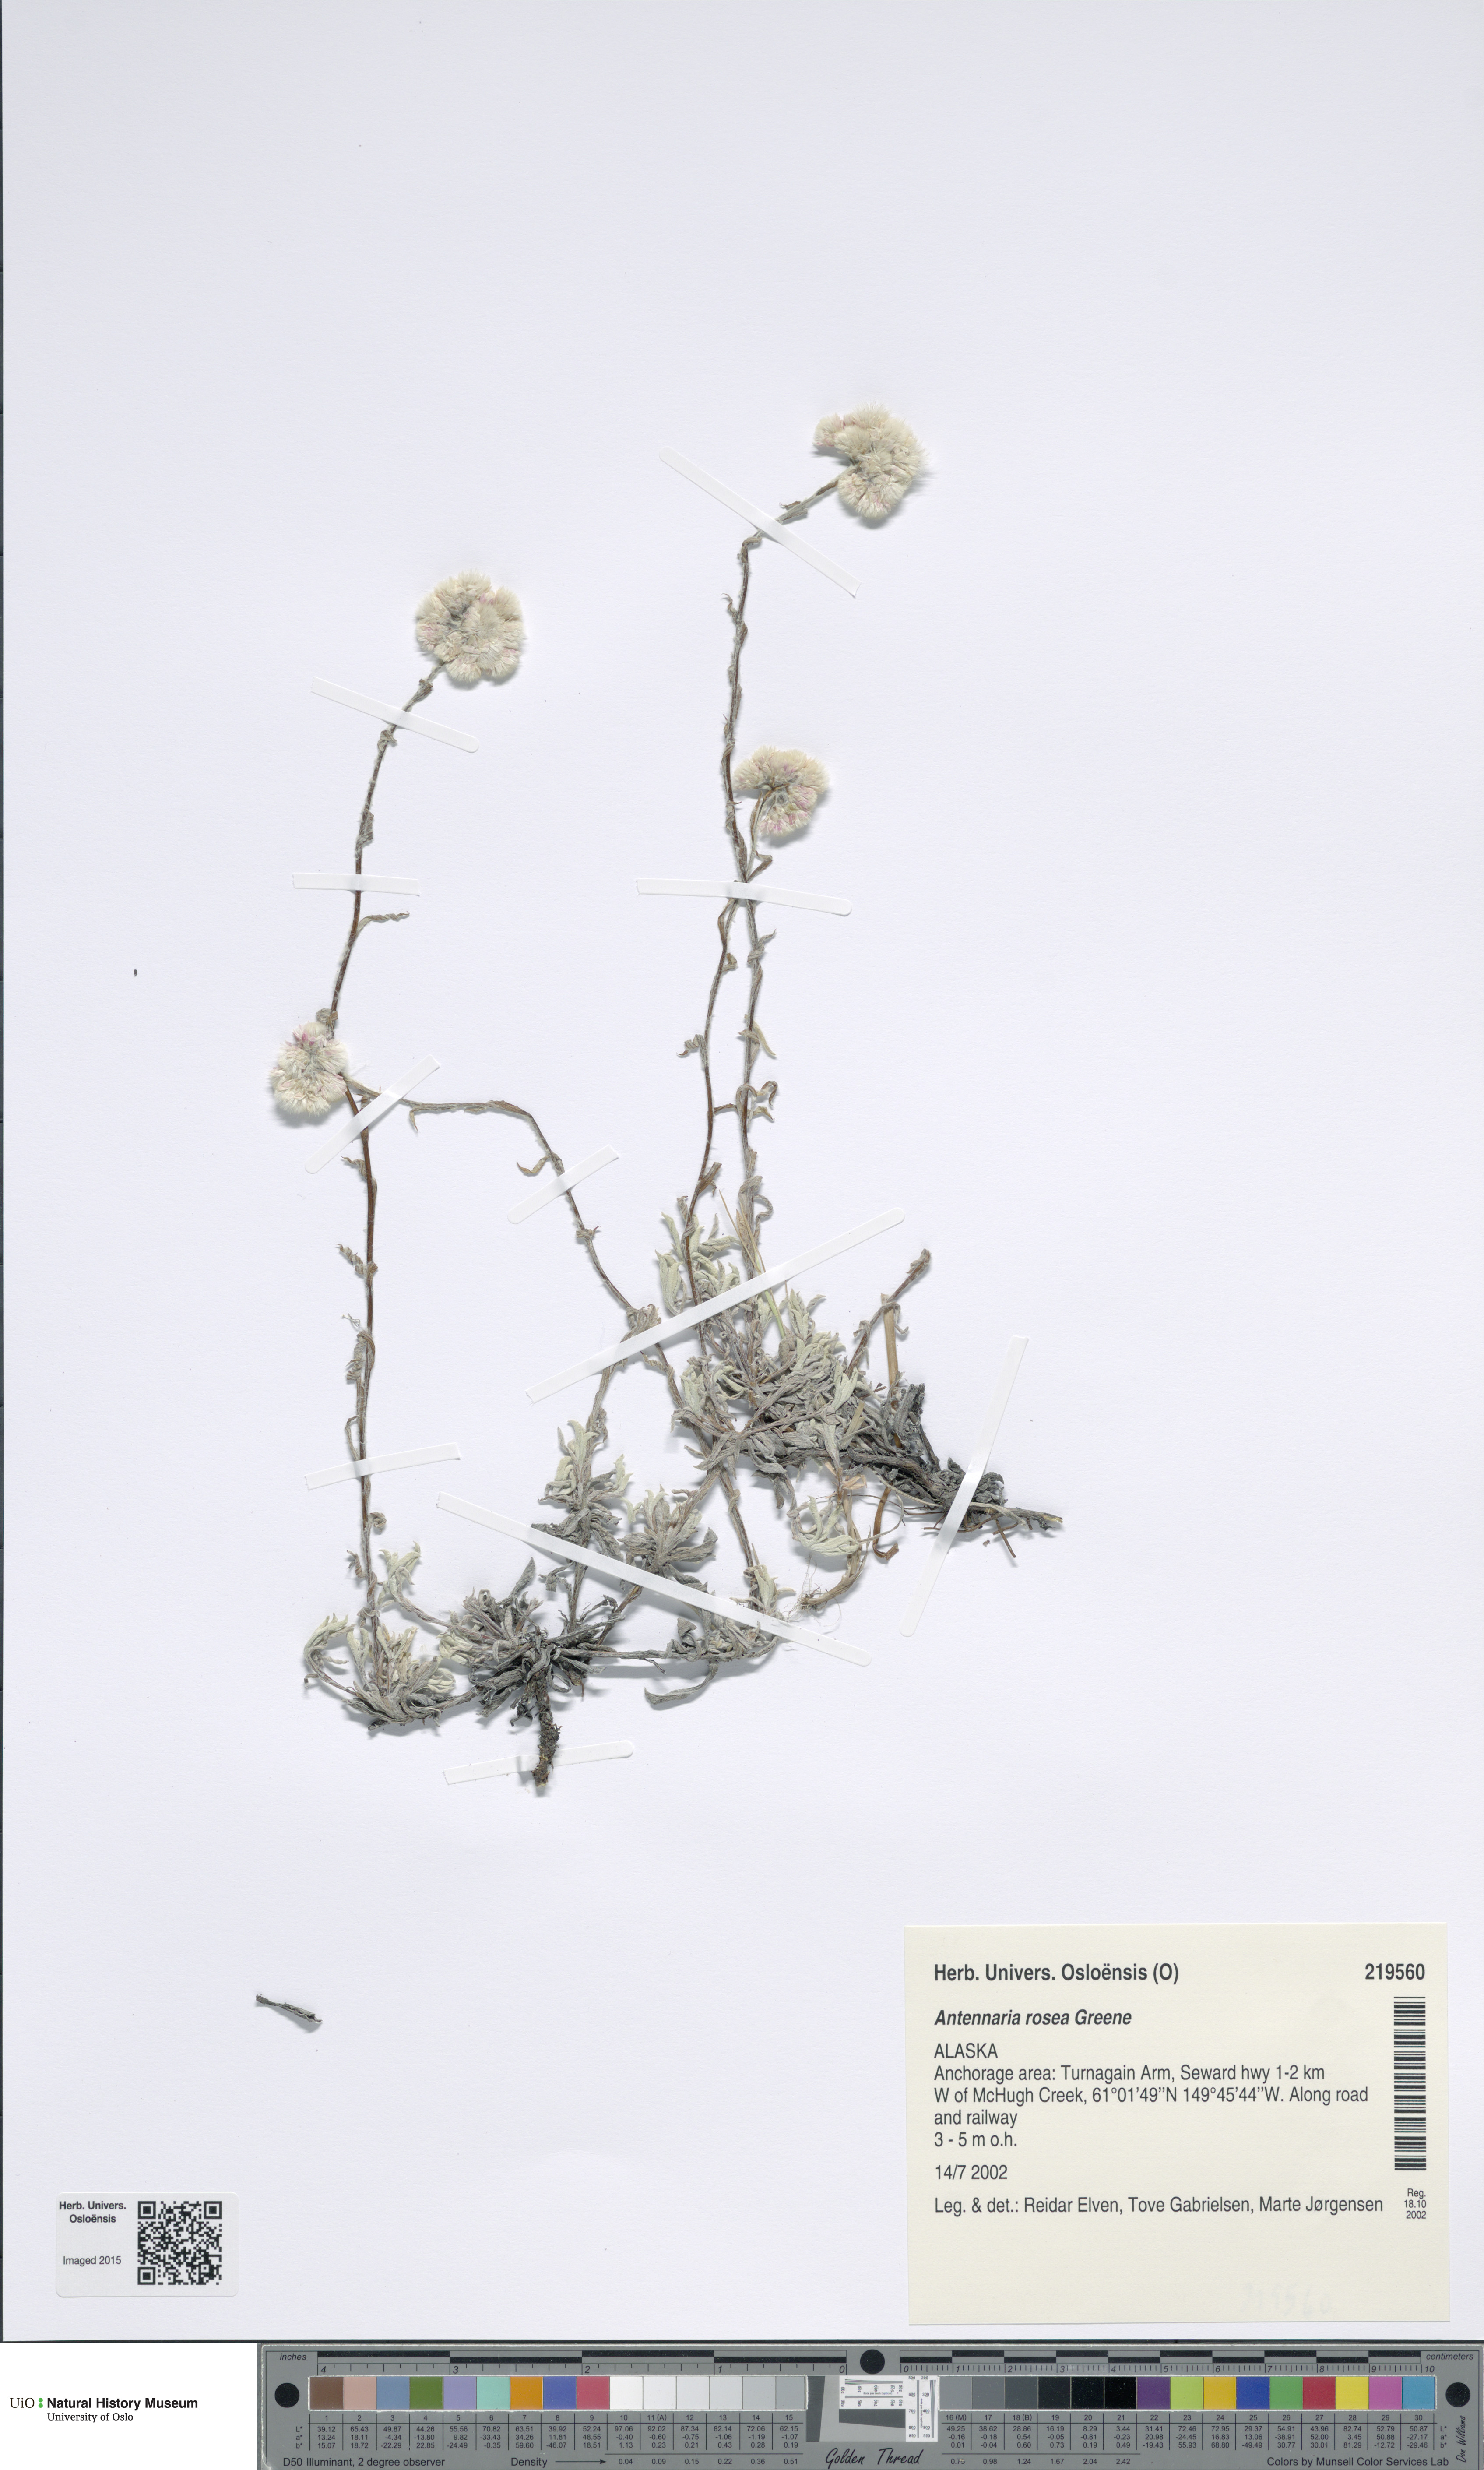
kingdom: Plantae
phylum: Tracheophyta
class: Magnoliopsida
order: Asterales
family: Asteraceae
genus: Antennaria
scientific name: Antennaria rosea
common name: Rosy pussytoes
